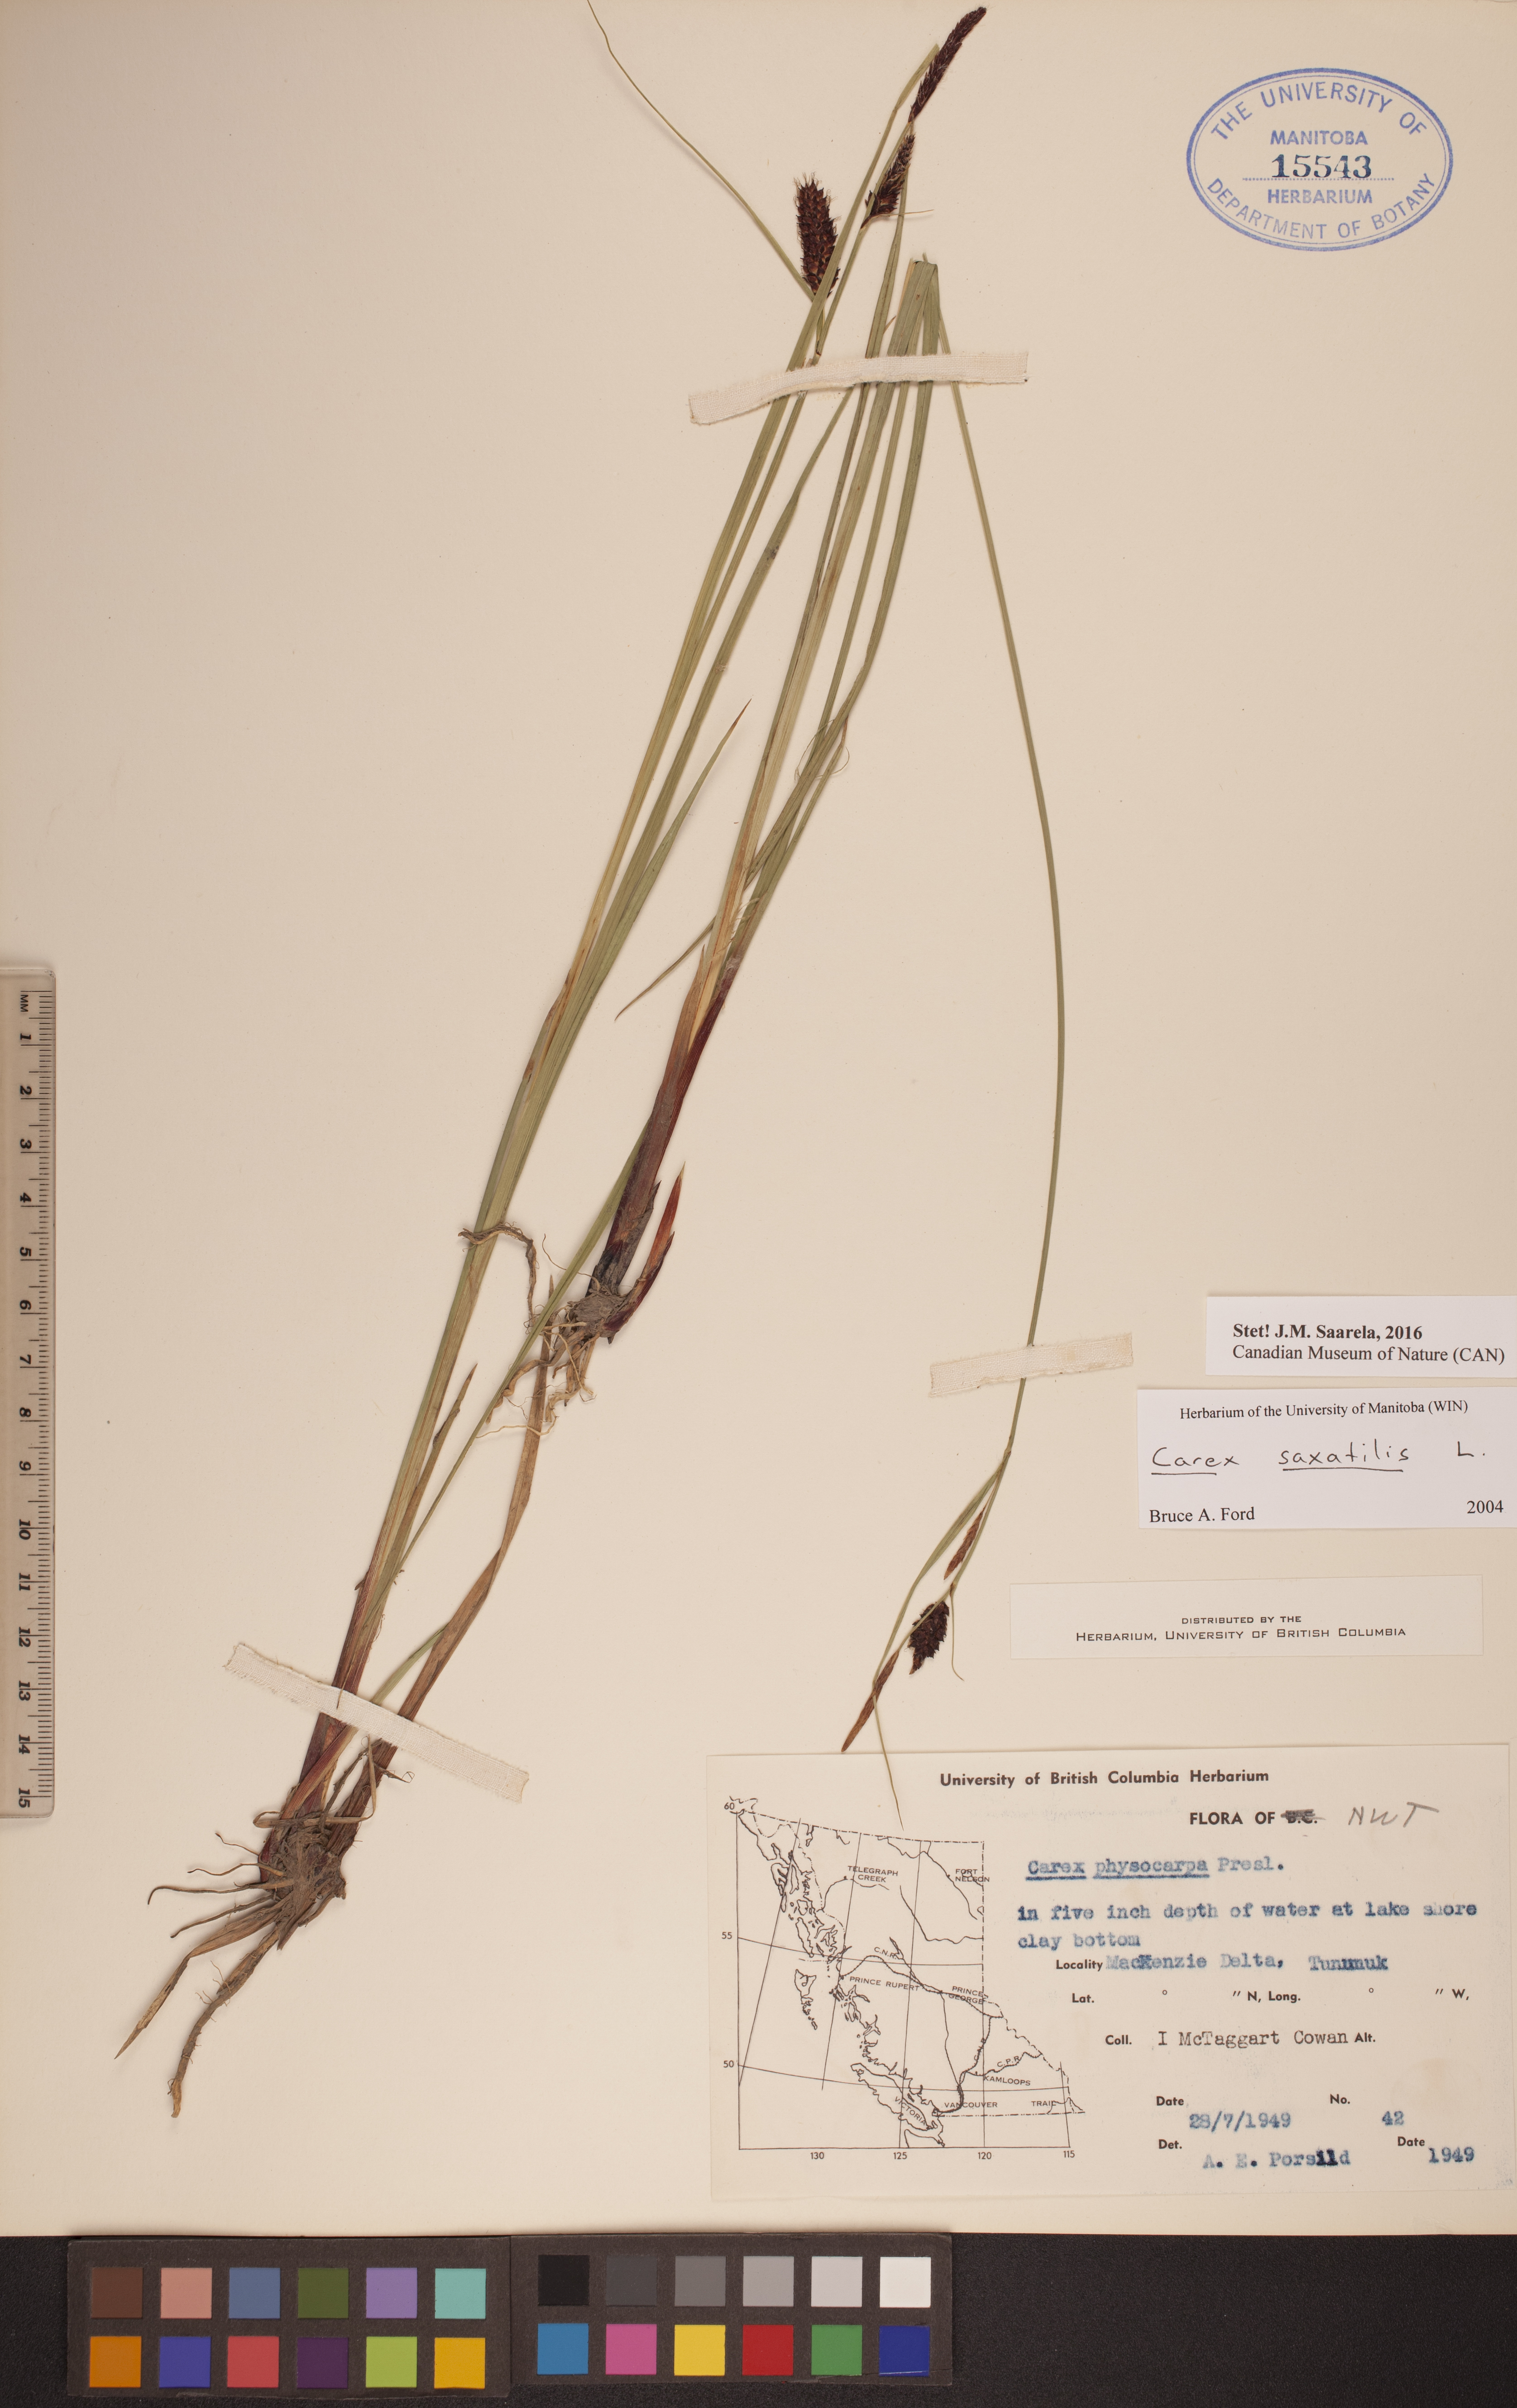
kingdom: Plantae
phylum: Tracheophyta
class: Liliopsida
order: Poales
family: Cyperaceae
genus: Carex
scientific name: Carex saxatilis
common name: Russet sedge
